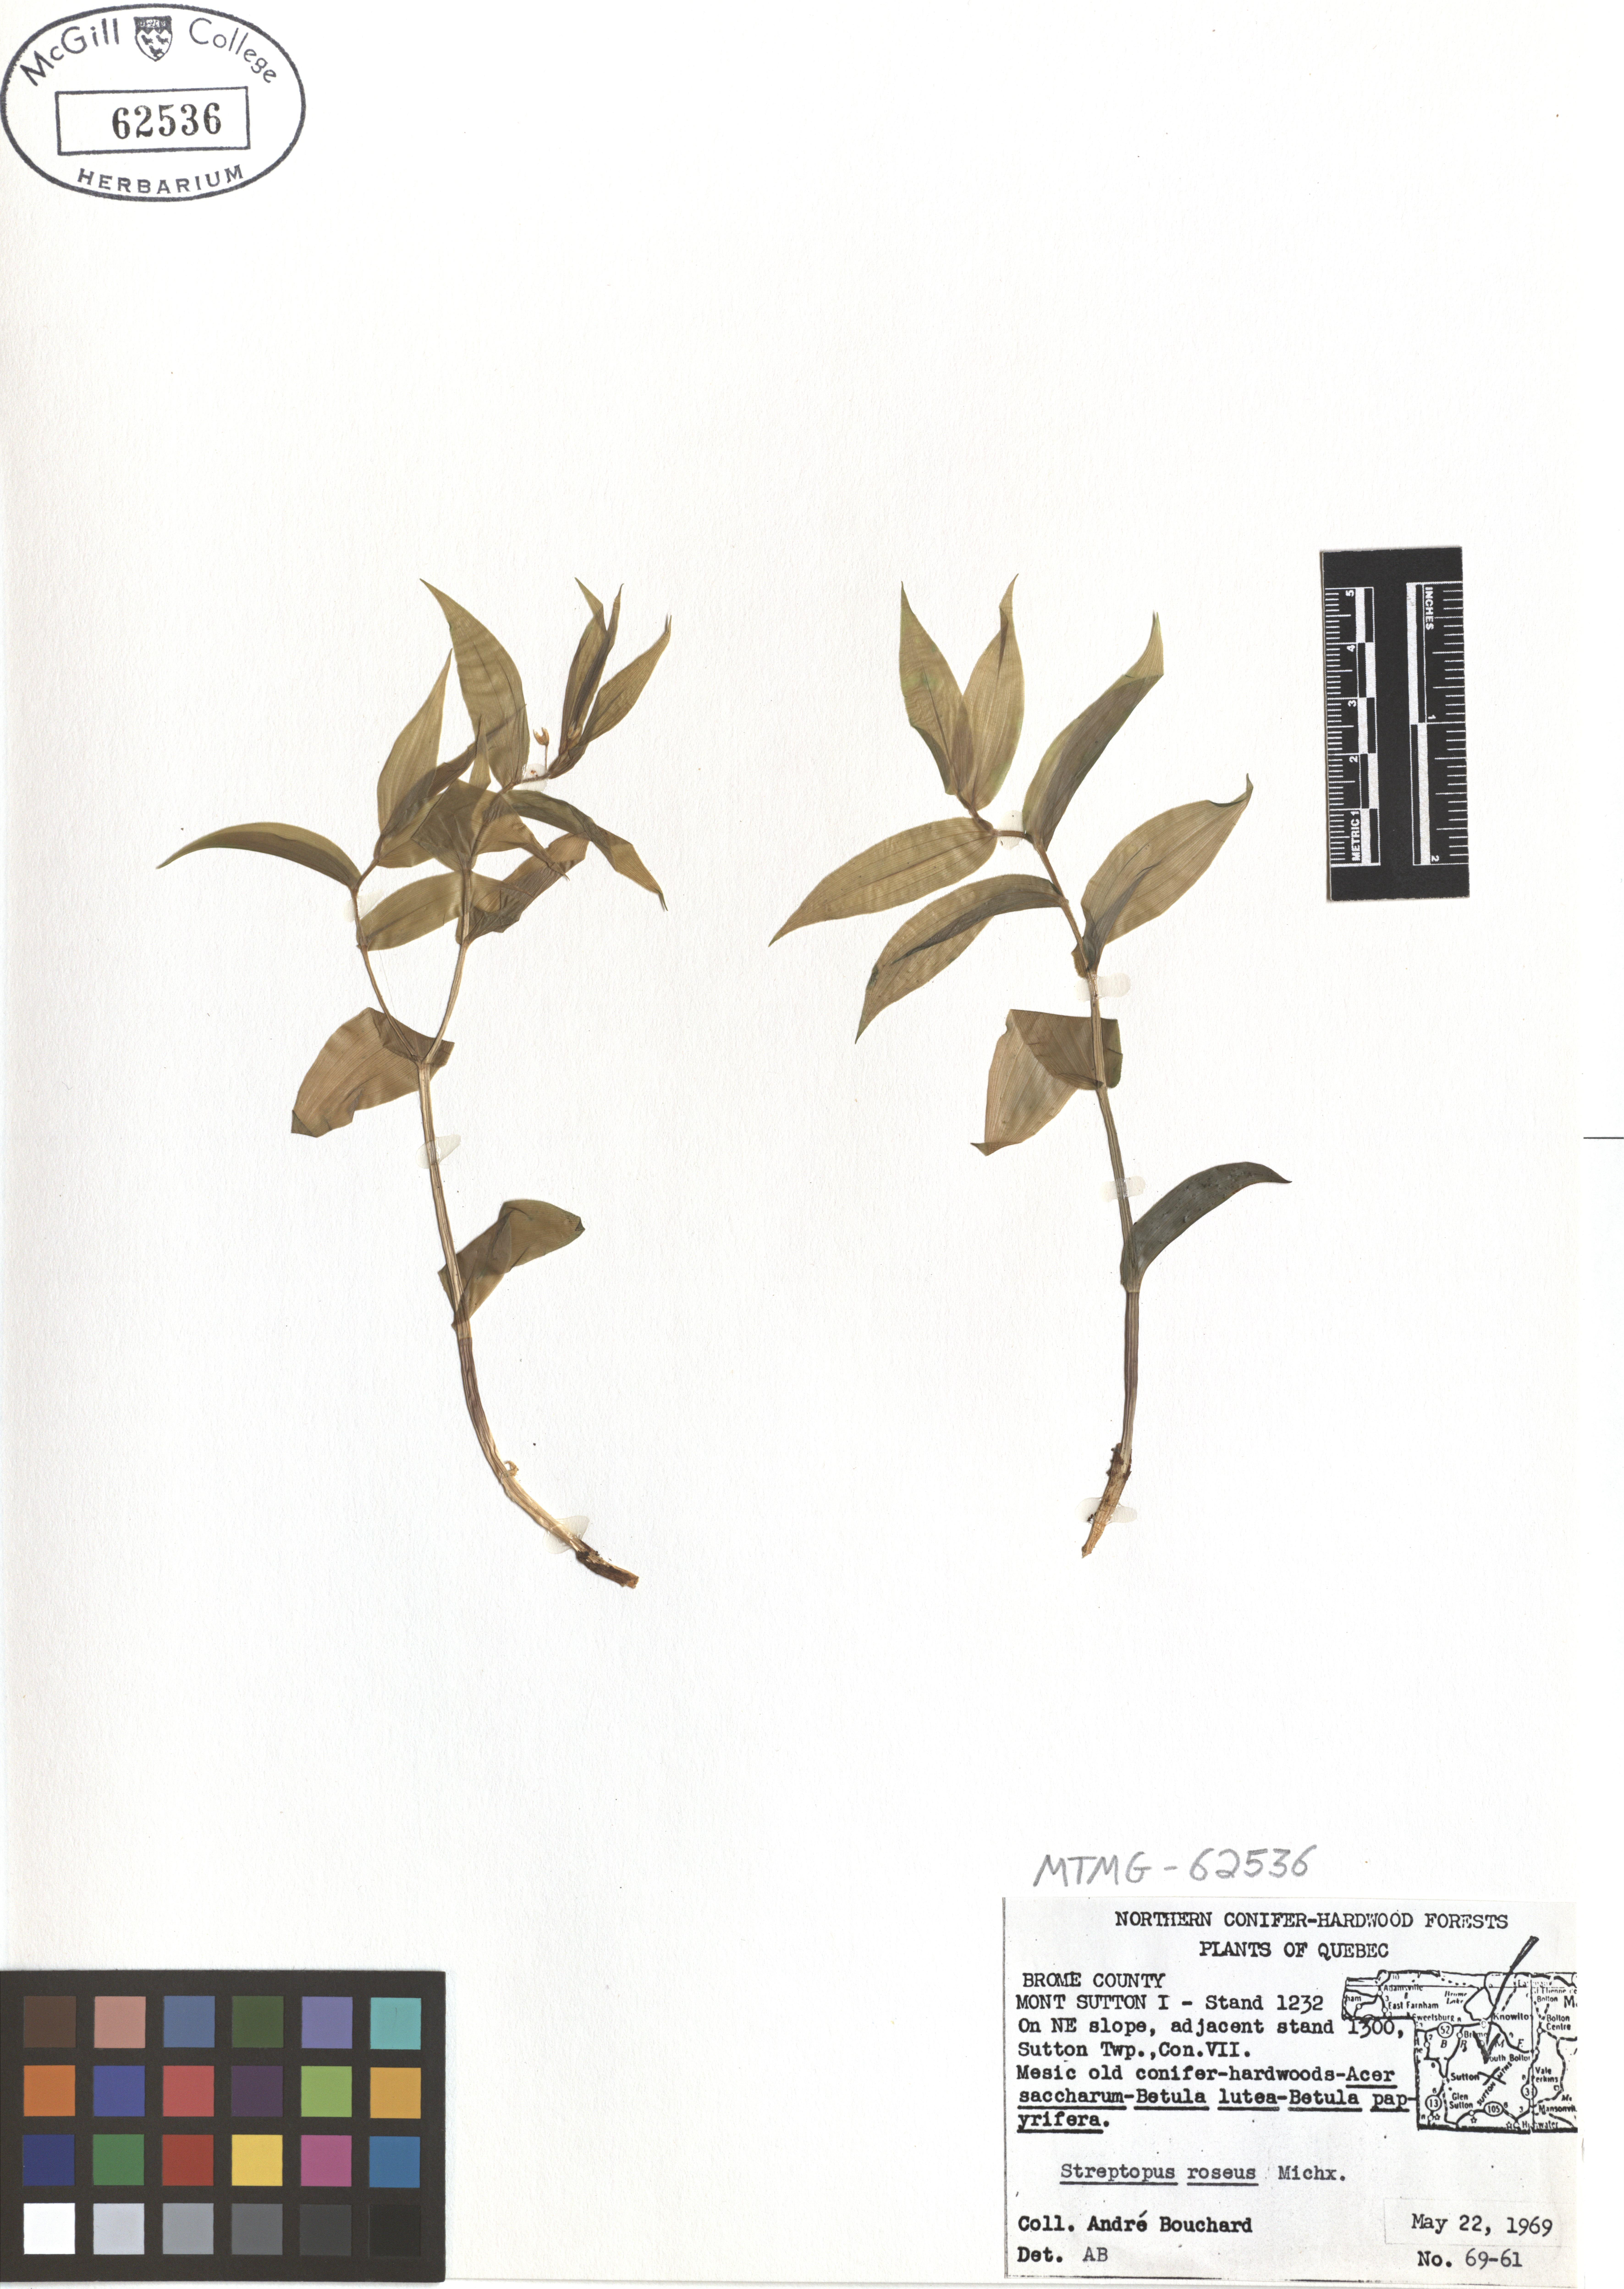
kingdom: Plantae
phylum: Tracheophyta
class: Liliopsida
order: Liliales
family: Liliaceae
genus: Streptopus
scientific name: Streptopus lanceolatus
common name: Rose mandarin
